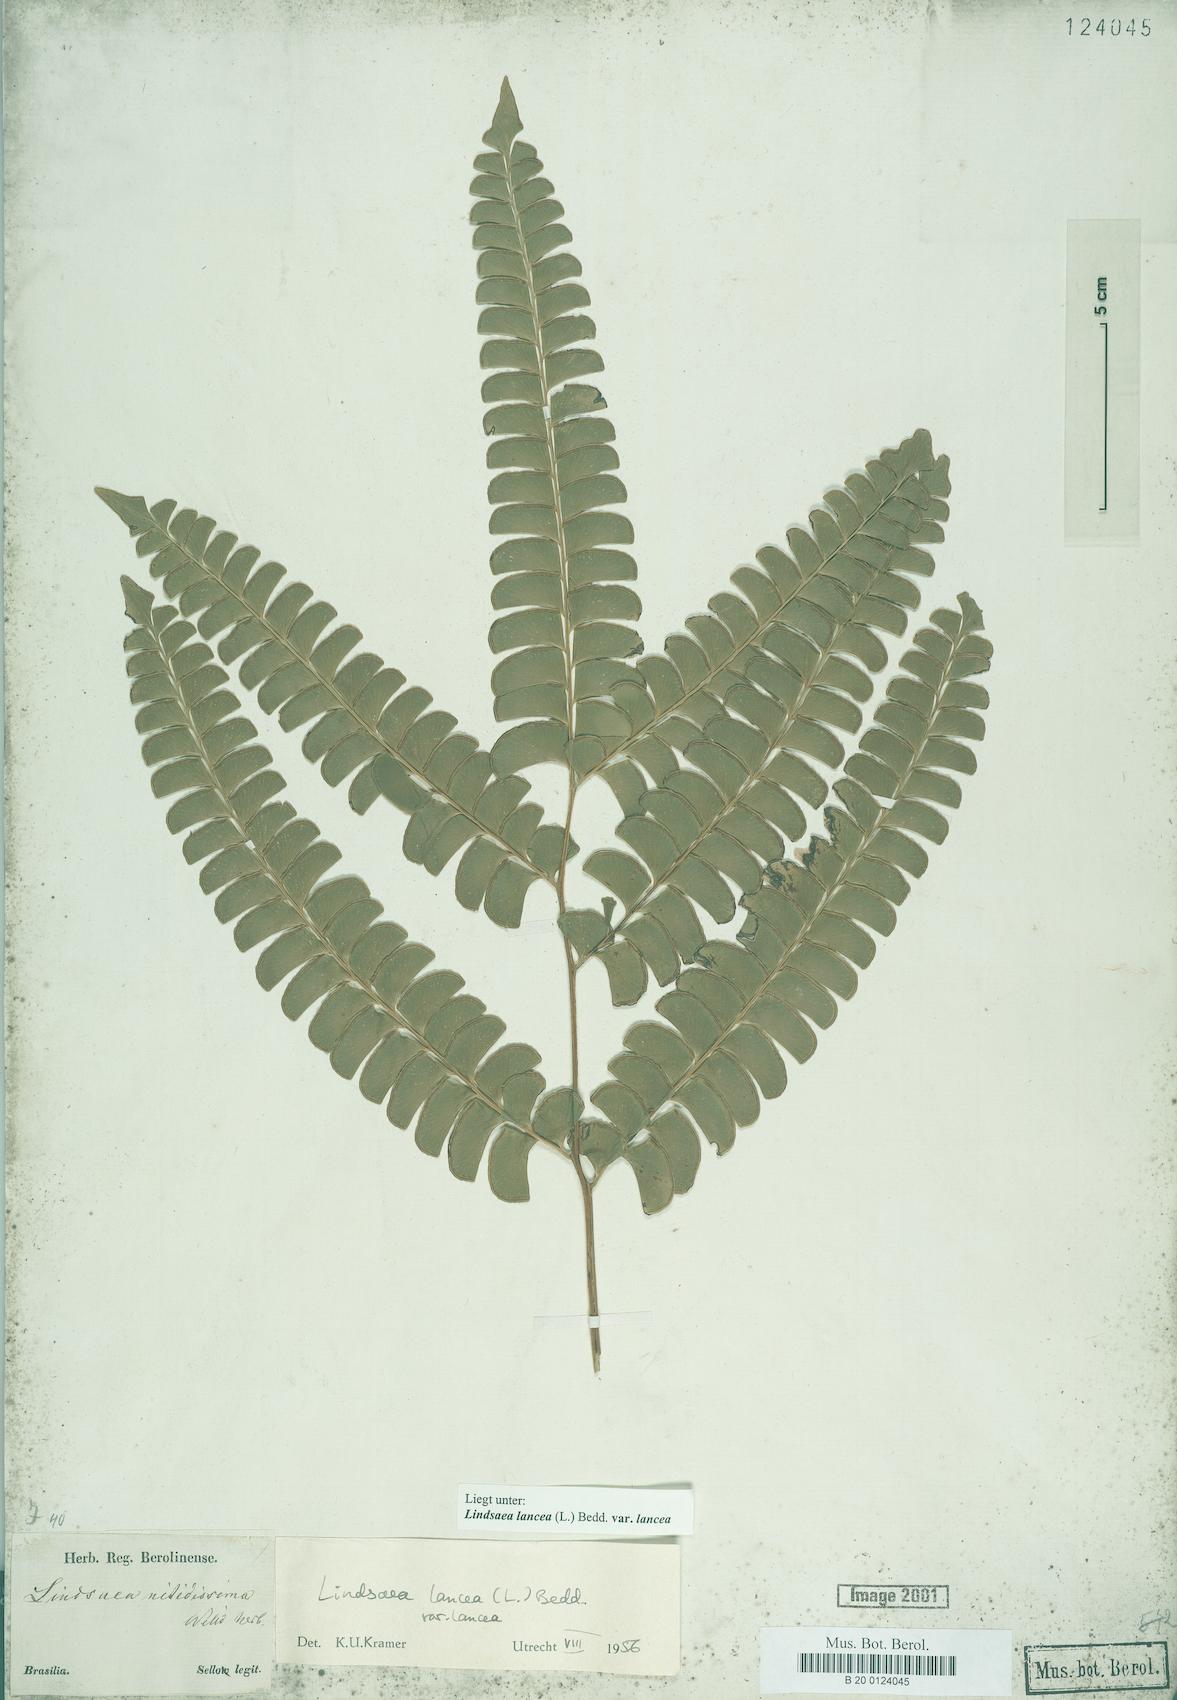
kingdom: Plantae
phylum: Tracheophyta
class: Polypodiopsida
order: Polypodiales
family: Lindsaeaceae
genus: Lindsaea
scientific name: Lindsaea lancea
